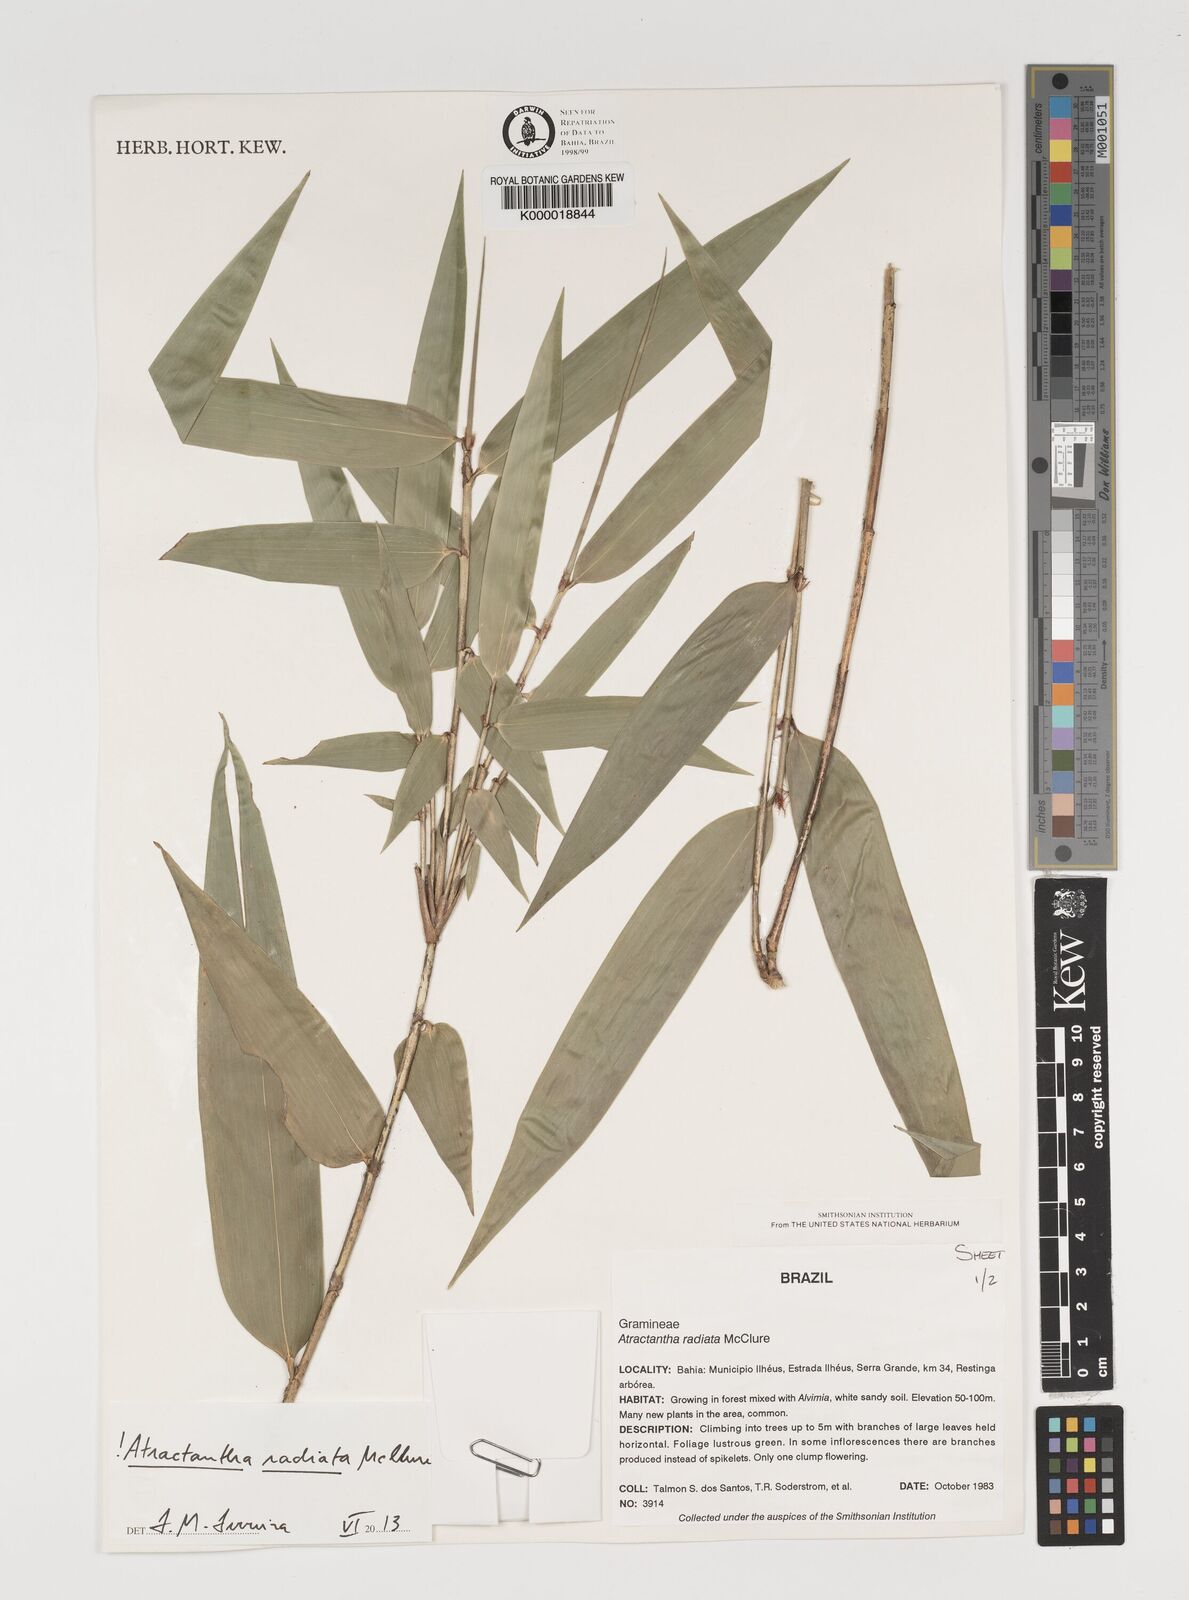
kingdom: Plantae
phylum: Tracheophyta
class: Liliopsida
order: Poales
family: Poaceae
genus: Atractantha
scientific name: Atractantha radiata
